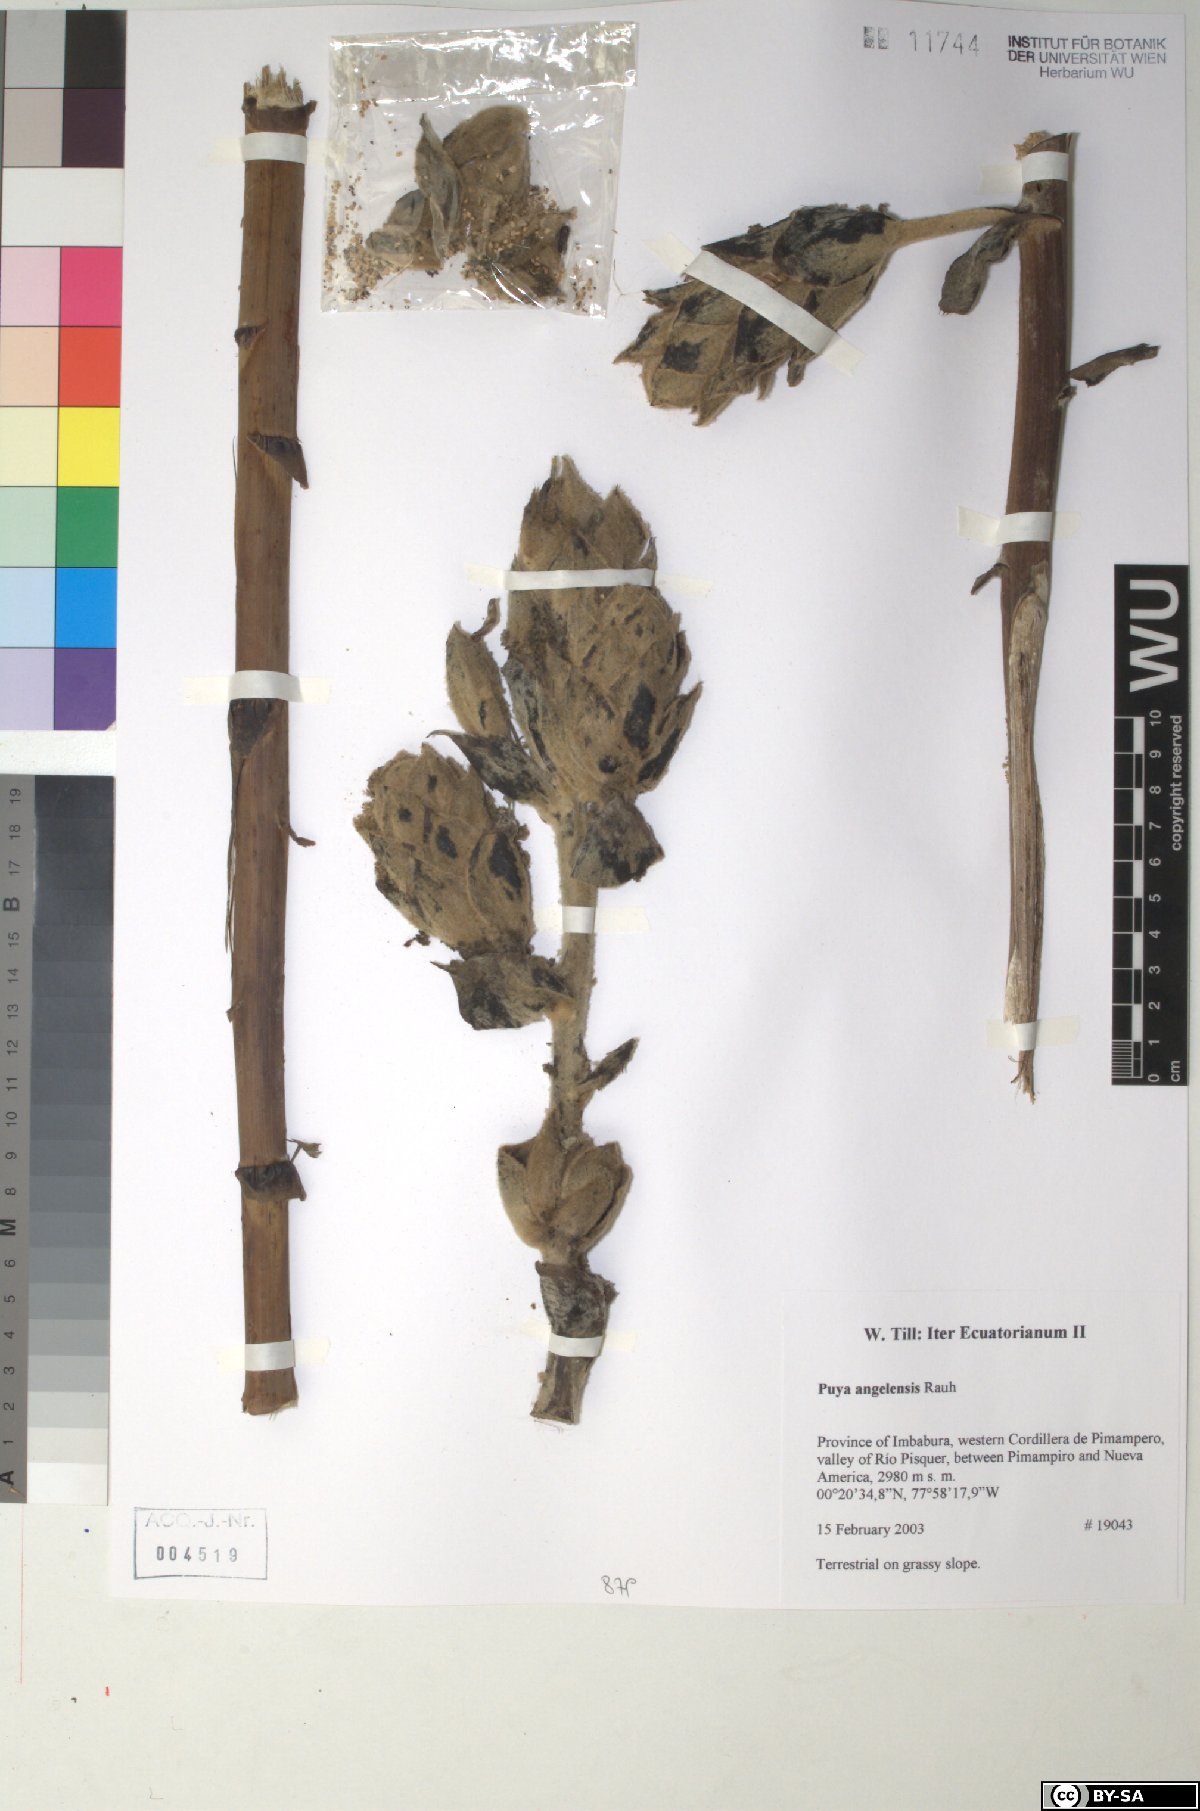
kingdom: Plantae
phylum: Tracheophyta
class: Liliopsida
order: Poales
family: Bromeliaceae
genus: Puya
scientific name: Puya angelensis
